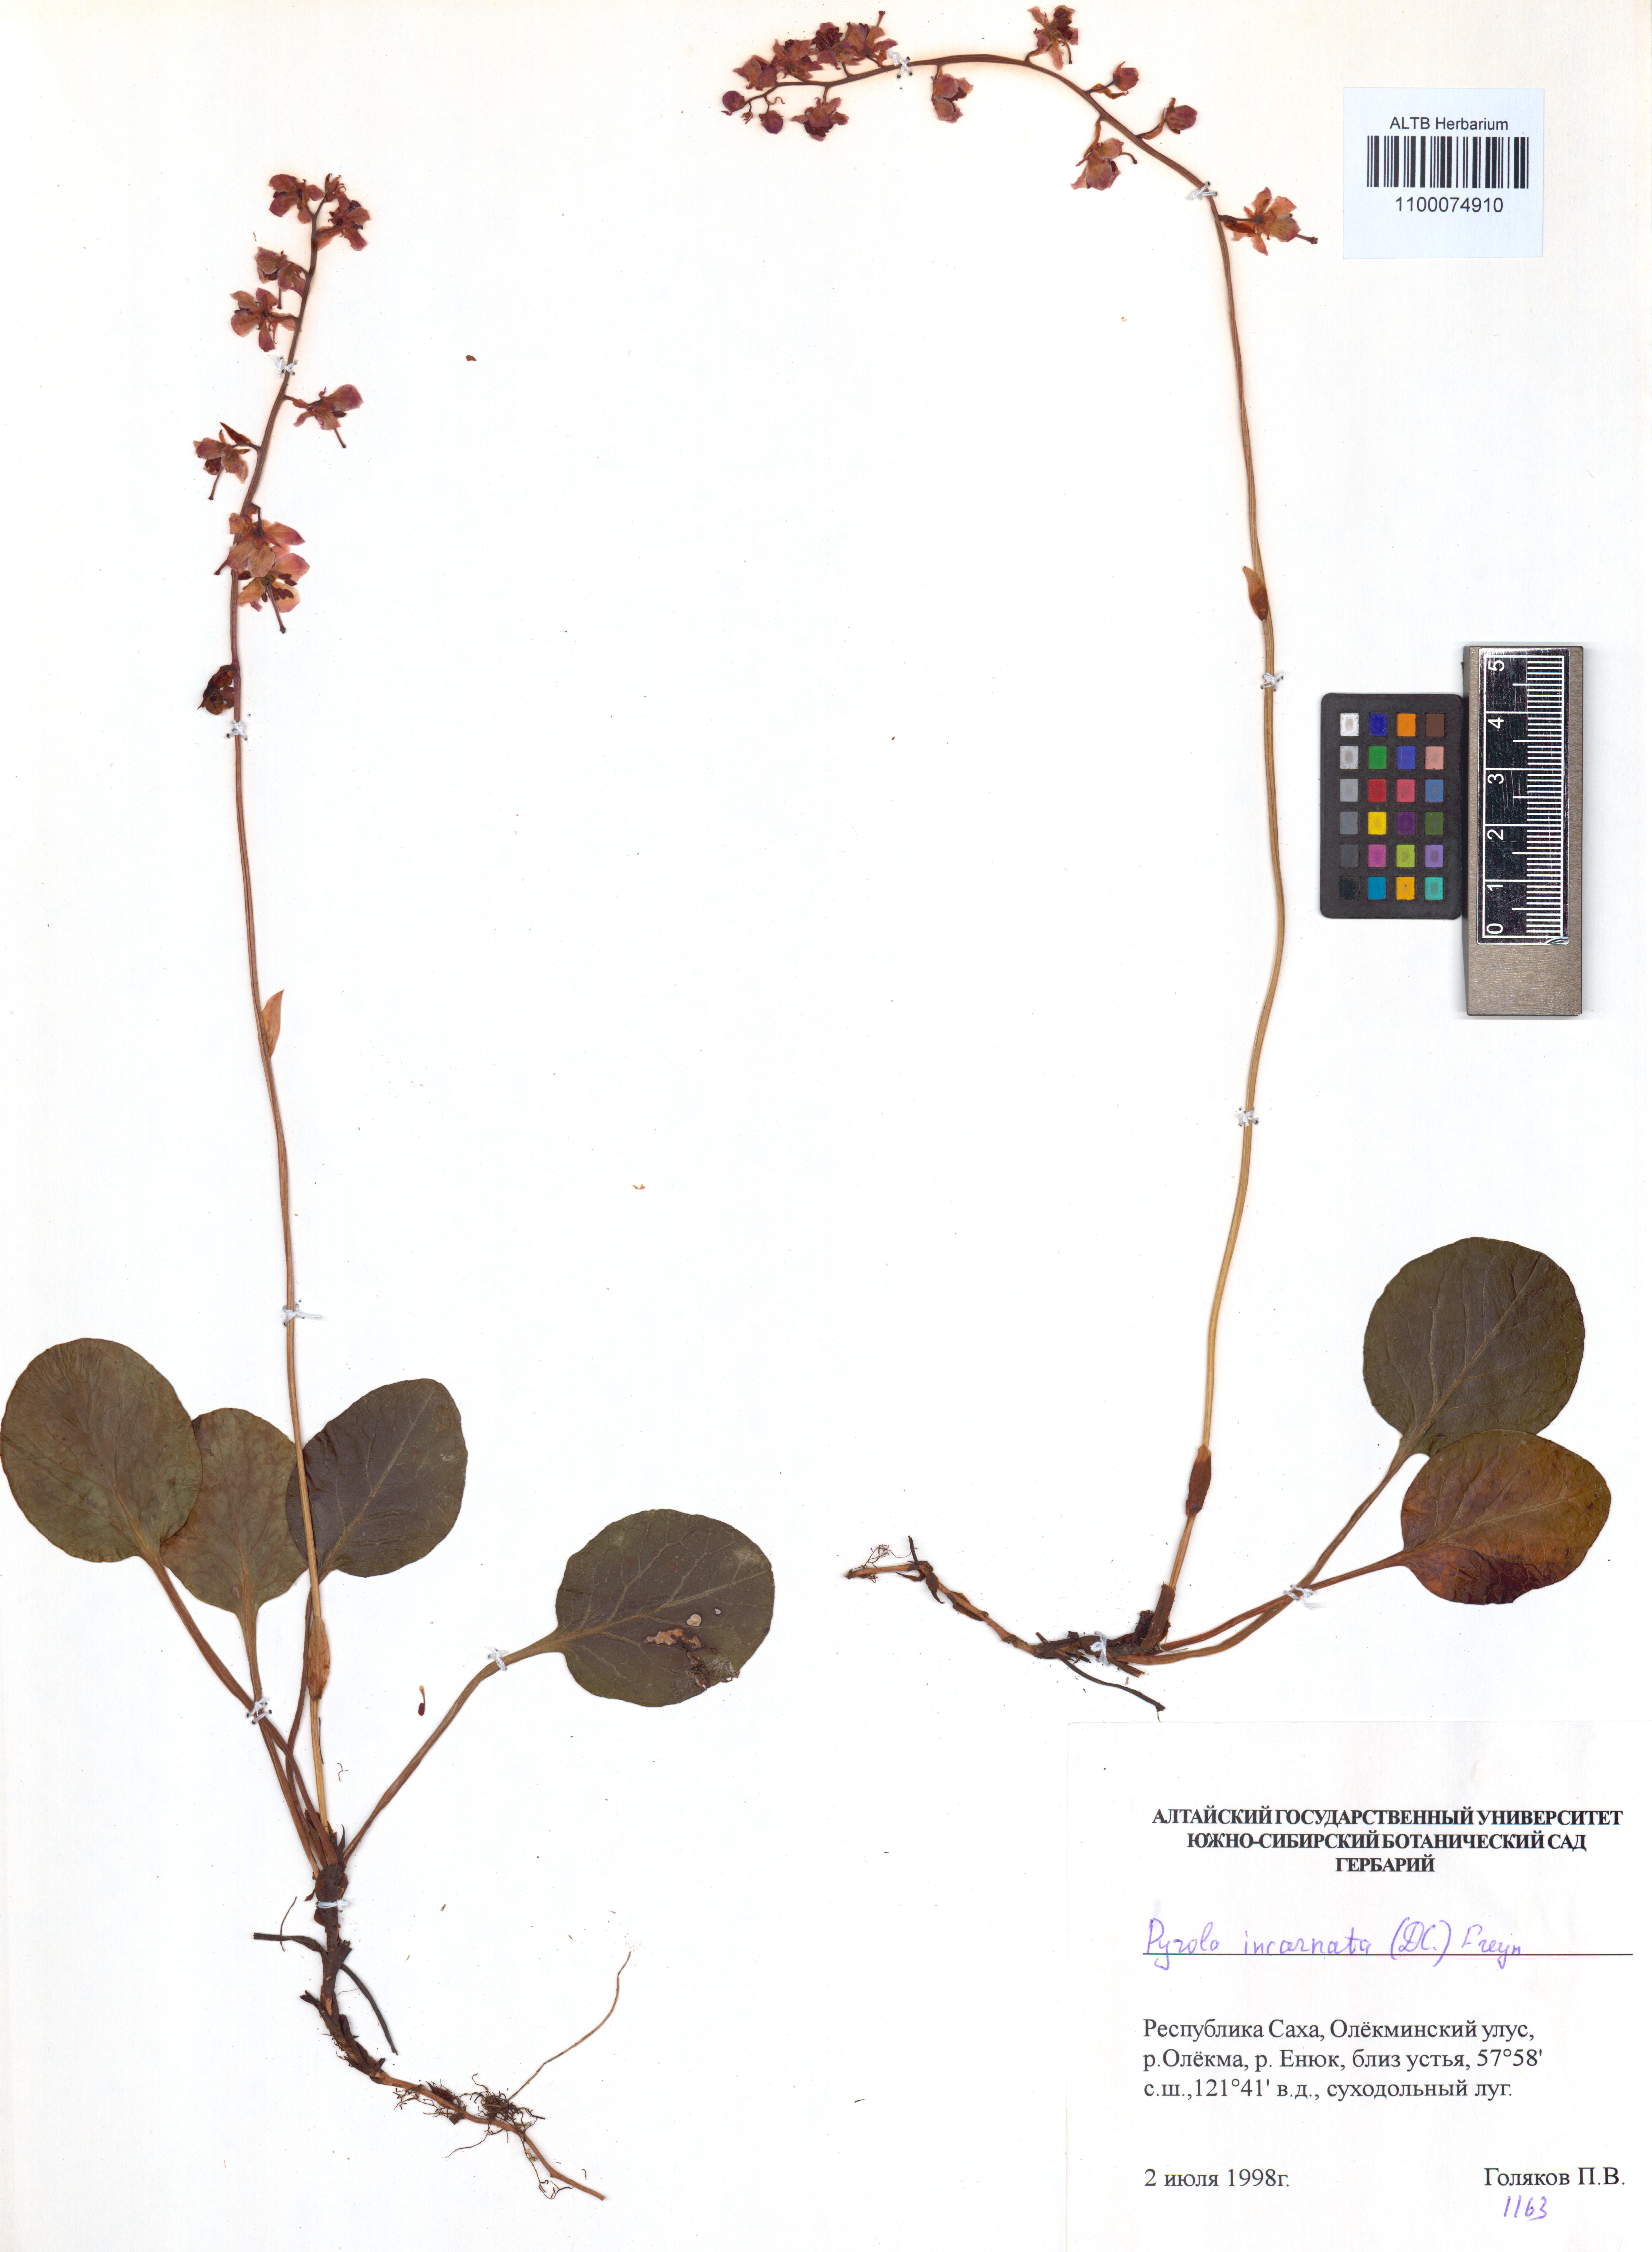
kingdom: Plantae
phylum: Tracheophyta
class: Magnoliopsida
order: Ericales
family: Ericaceae
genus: Pyrola
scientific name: Pyrola asarifolia
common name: Bog wintergreen
